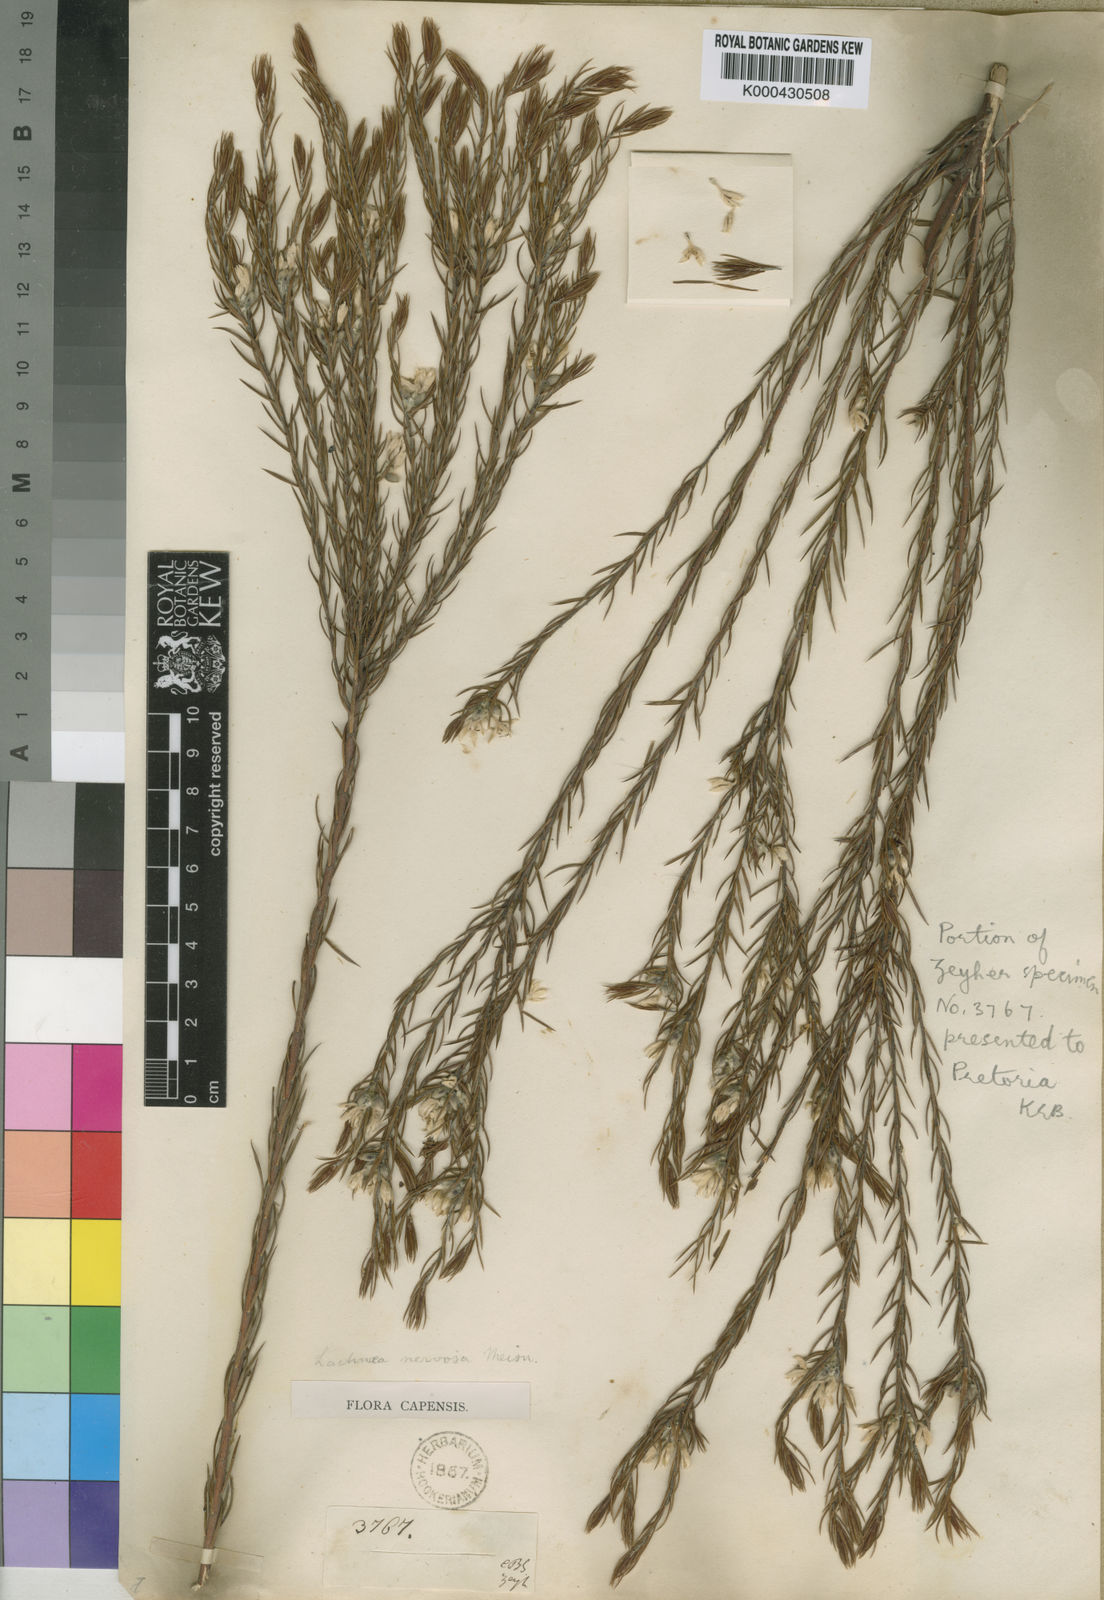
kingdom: Plantae
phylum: Tracheophyta
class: Magnoliopsida
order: Malvales
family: Thymelaeaceae
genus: Lachnaea
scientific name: Lachnaea nervosa
